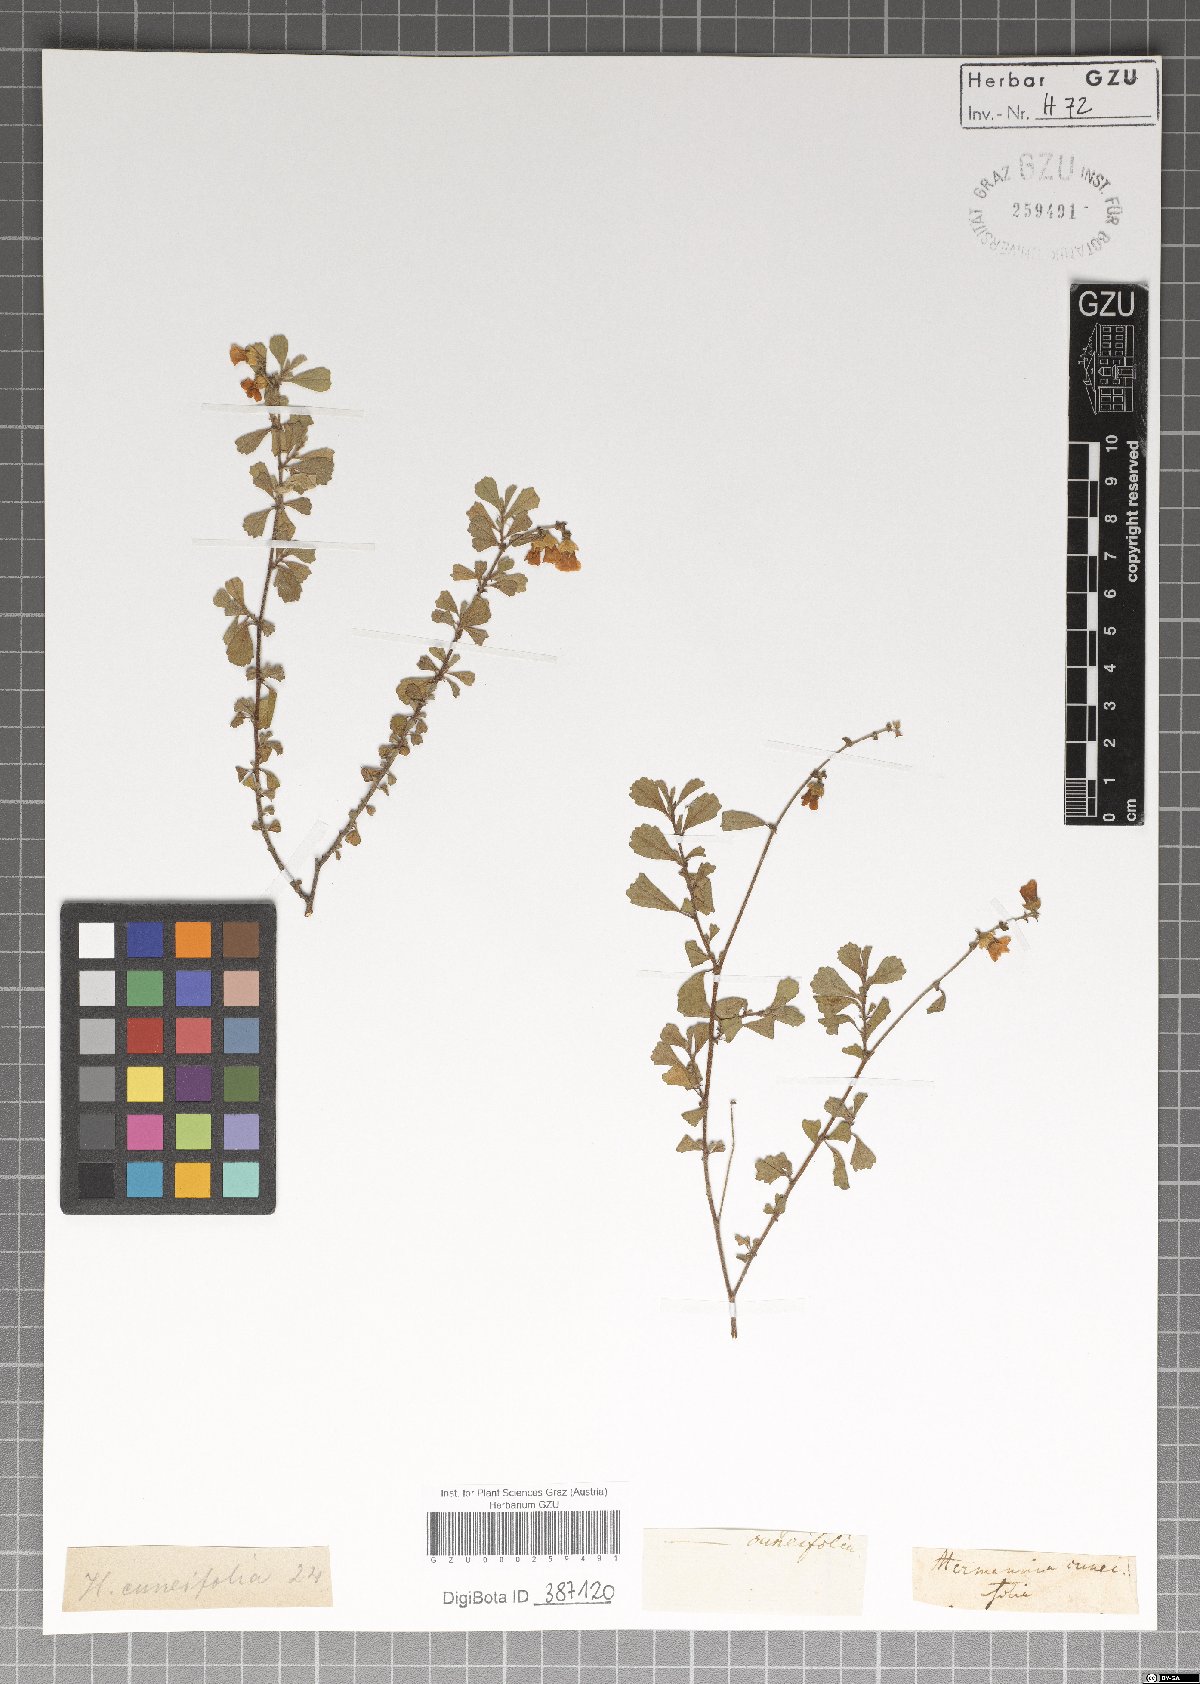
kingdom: Plantae
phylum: Tracheophyta
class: Magnoliopsida
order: Malvales
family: Malvaceae
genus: Hermannia
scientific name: Hermannia cuneifolia
